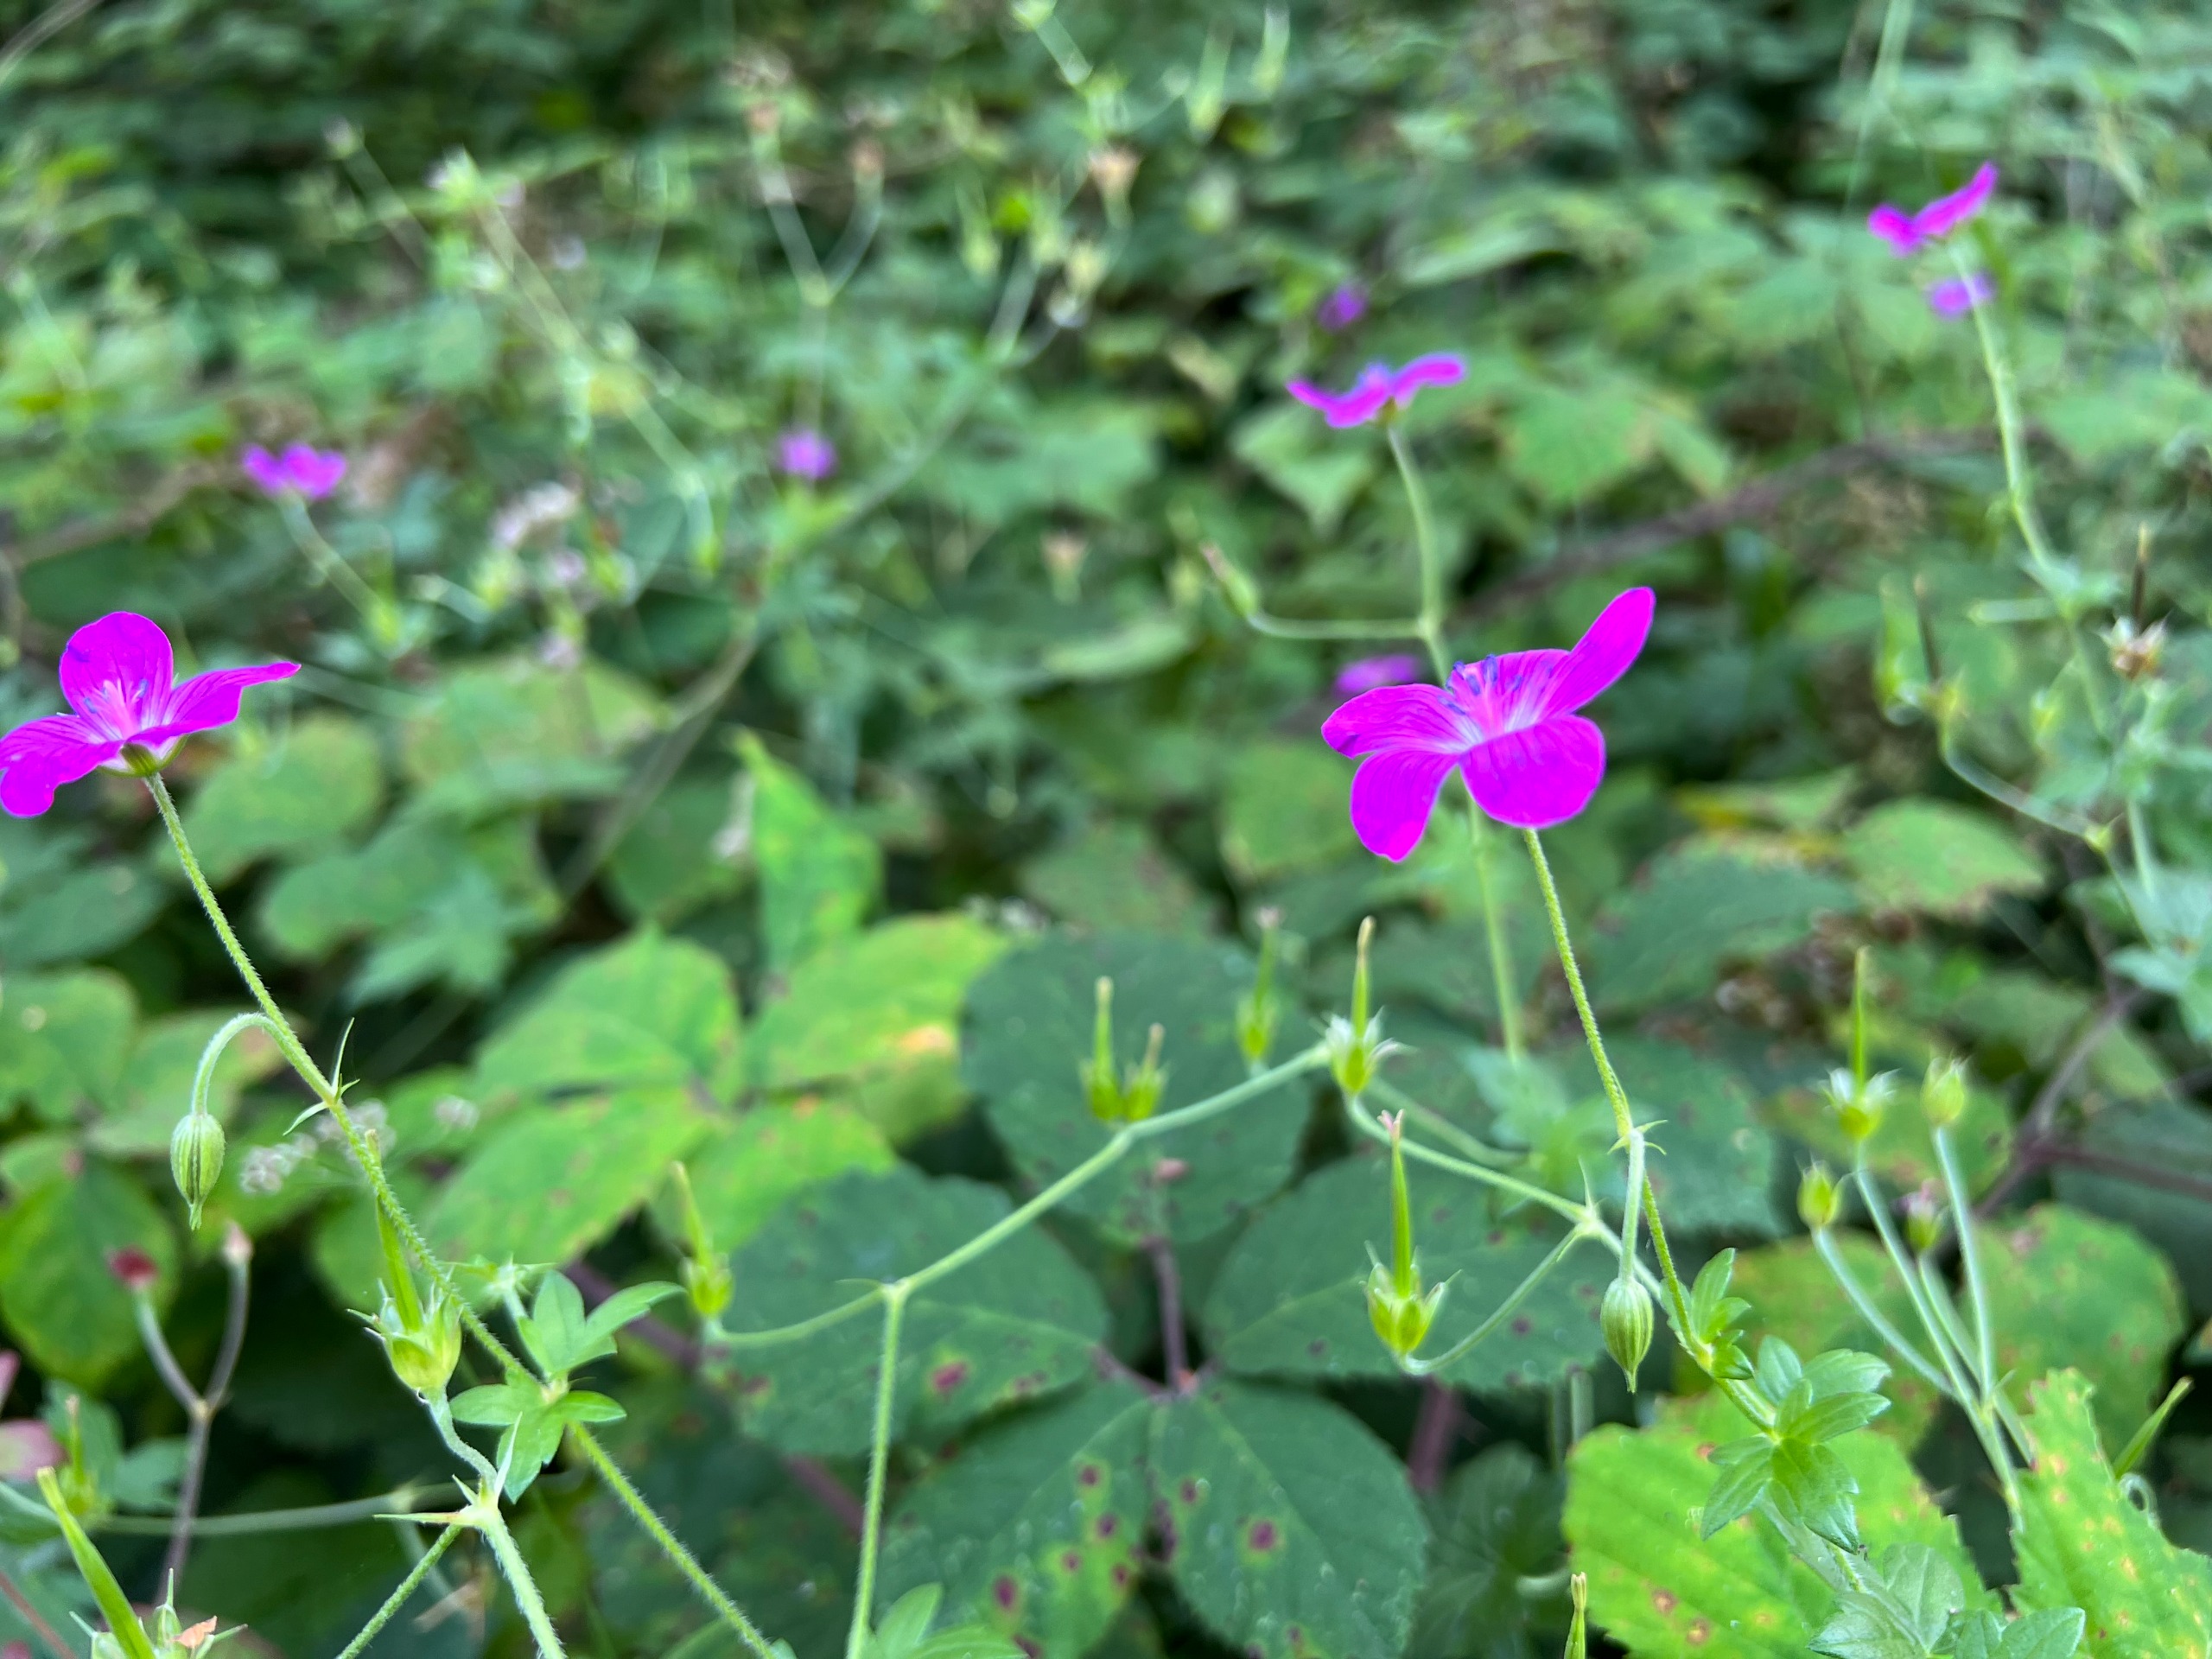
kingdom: Plantae
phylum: Tracheophyta
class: Magnoliopsida
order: Geraniales
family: Geraniaceae
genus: Geranium
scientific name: Geranium palustre
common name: Kær-storkenæb
